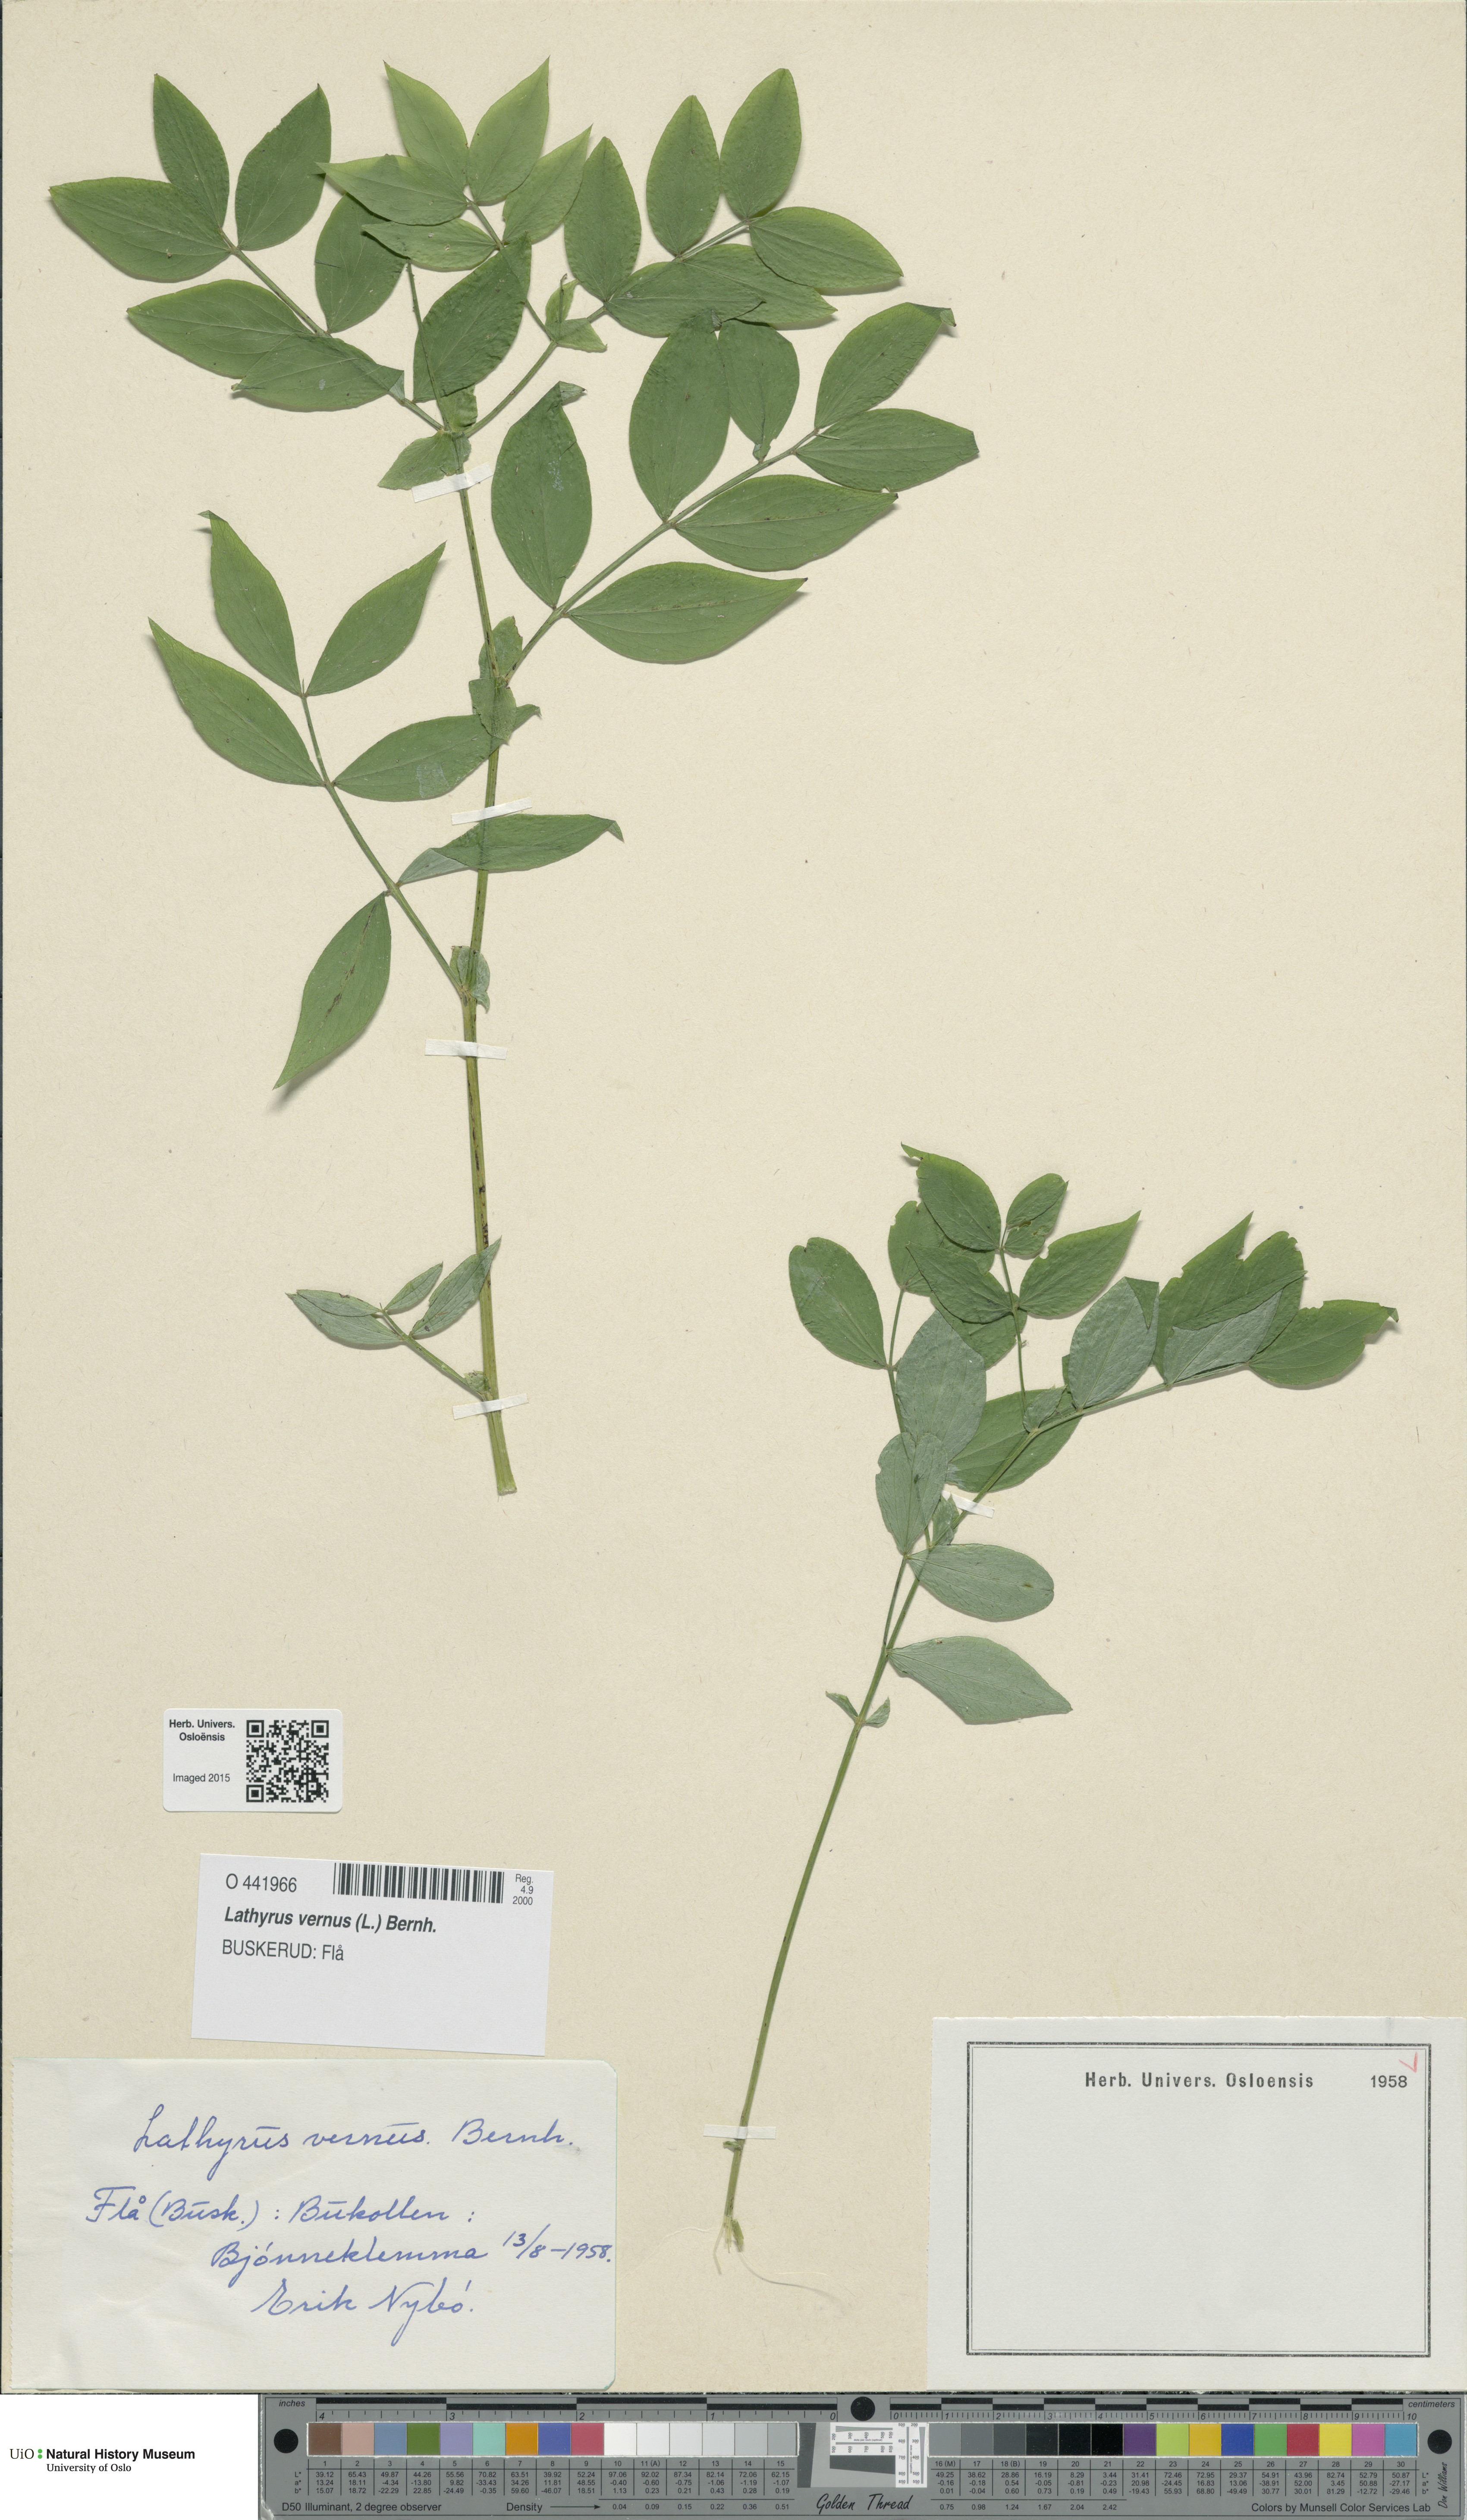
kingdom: Plantae
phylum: Tracheophyta
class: Magnoliopsida
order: Fabales
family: Fabaceae
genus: Lathyrus
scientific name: Lathyrus vernus
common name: Spring pea
